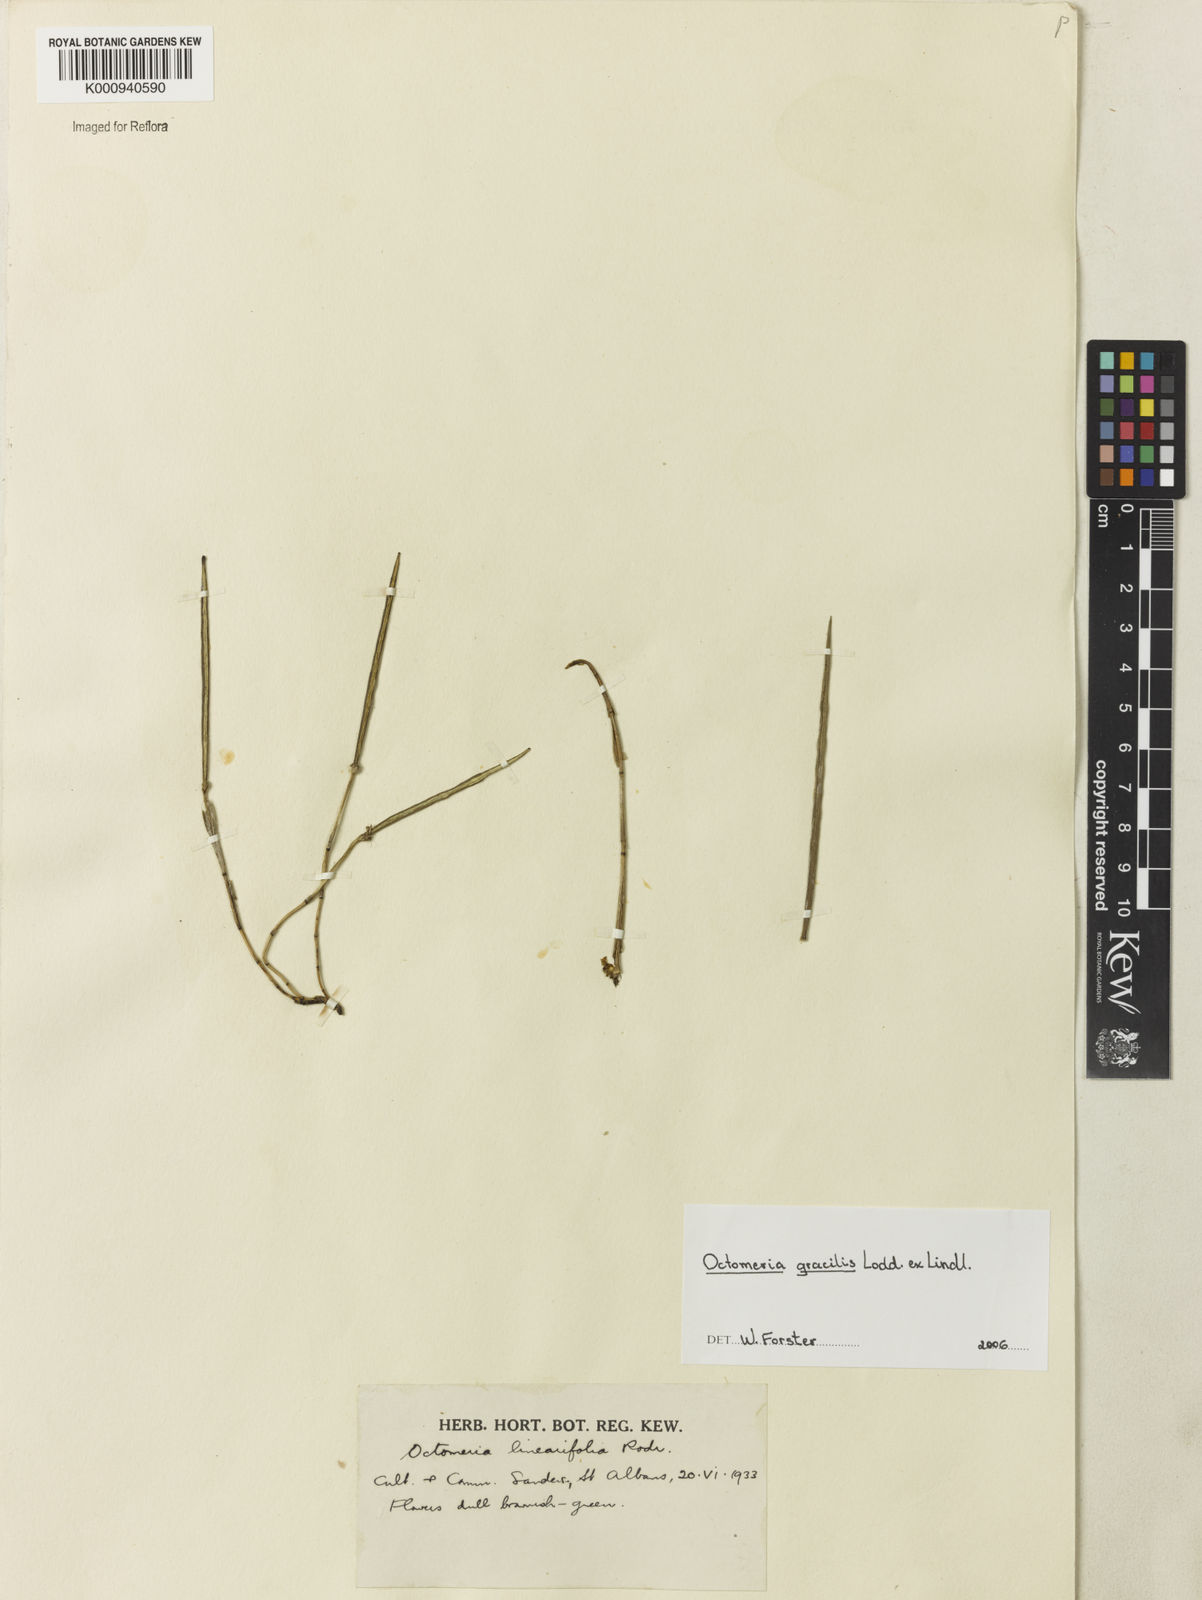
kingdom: Plantae
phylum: Tracheophyta
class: Liliopsida
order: Asparagales
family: Orchidaceae
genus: Octomeria
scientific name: Octomeria gracilis
